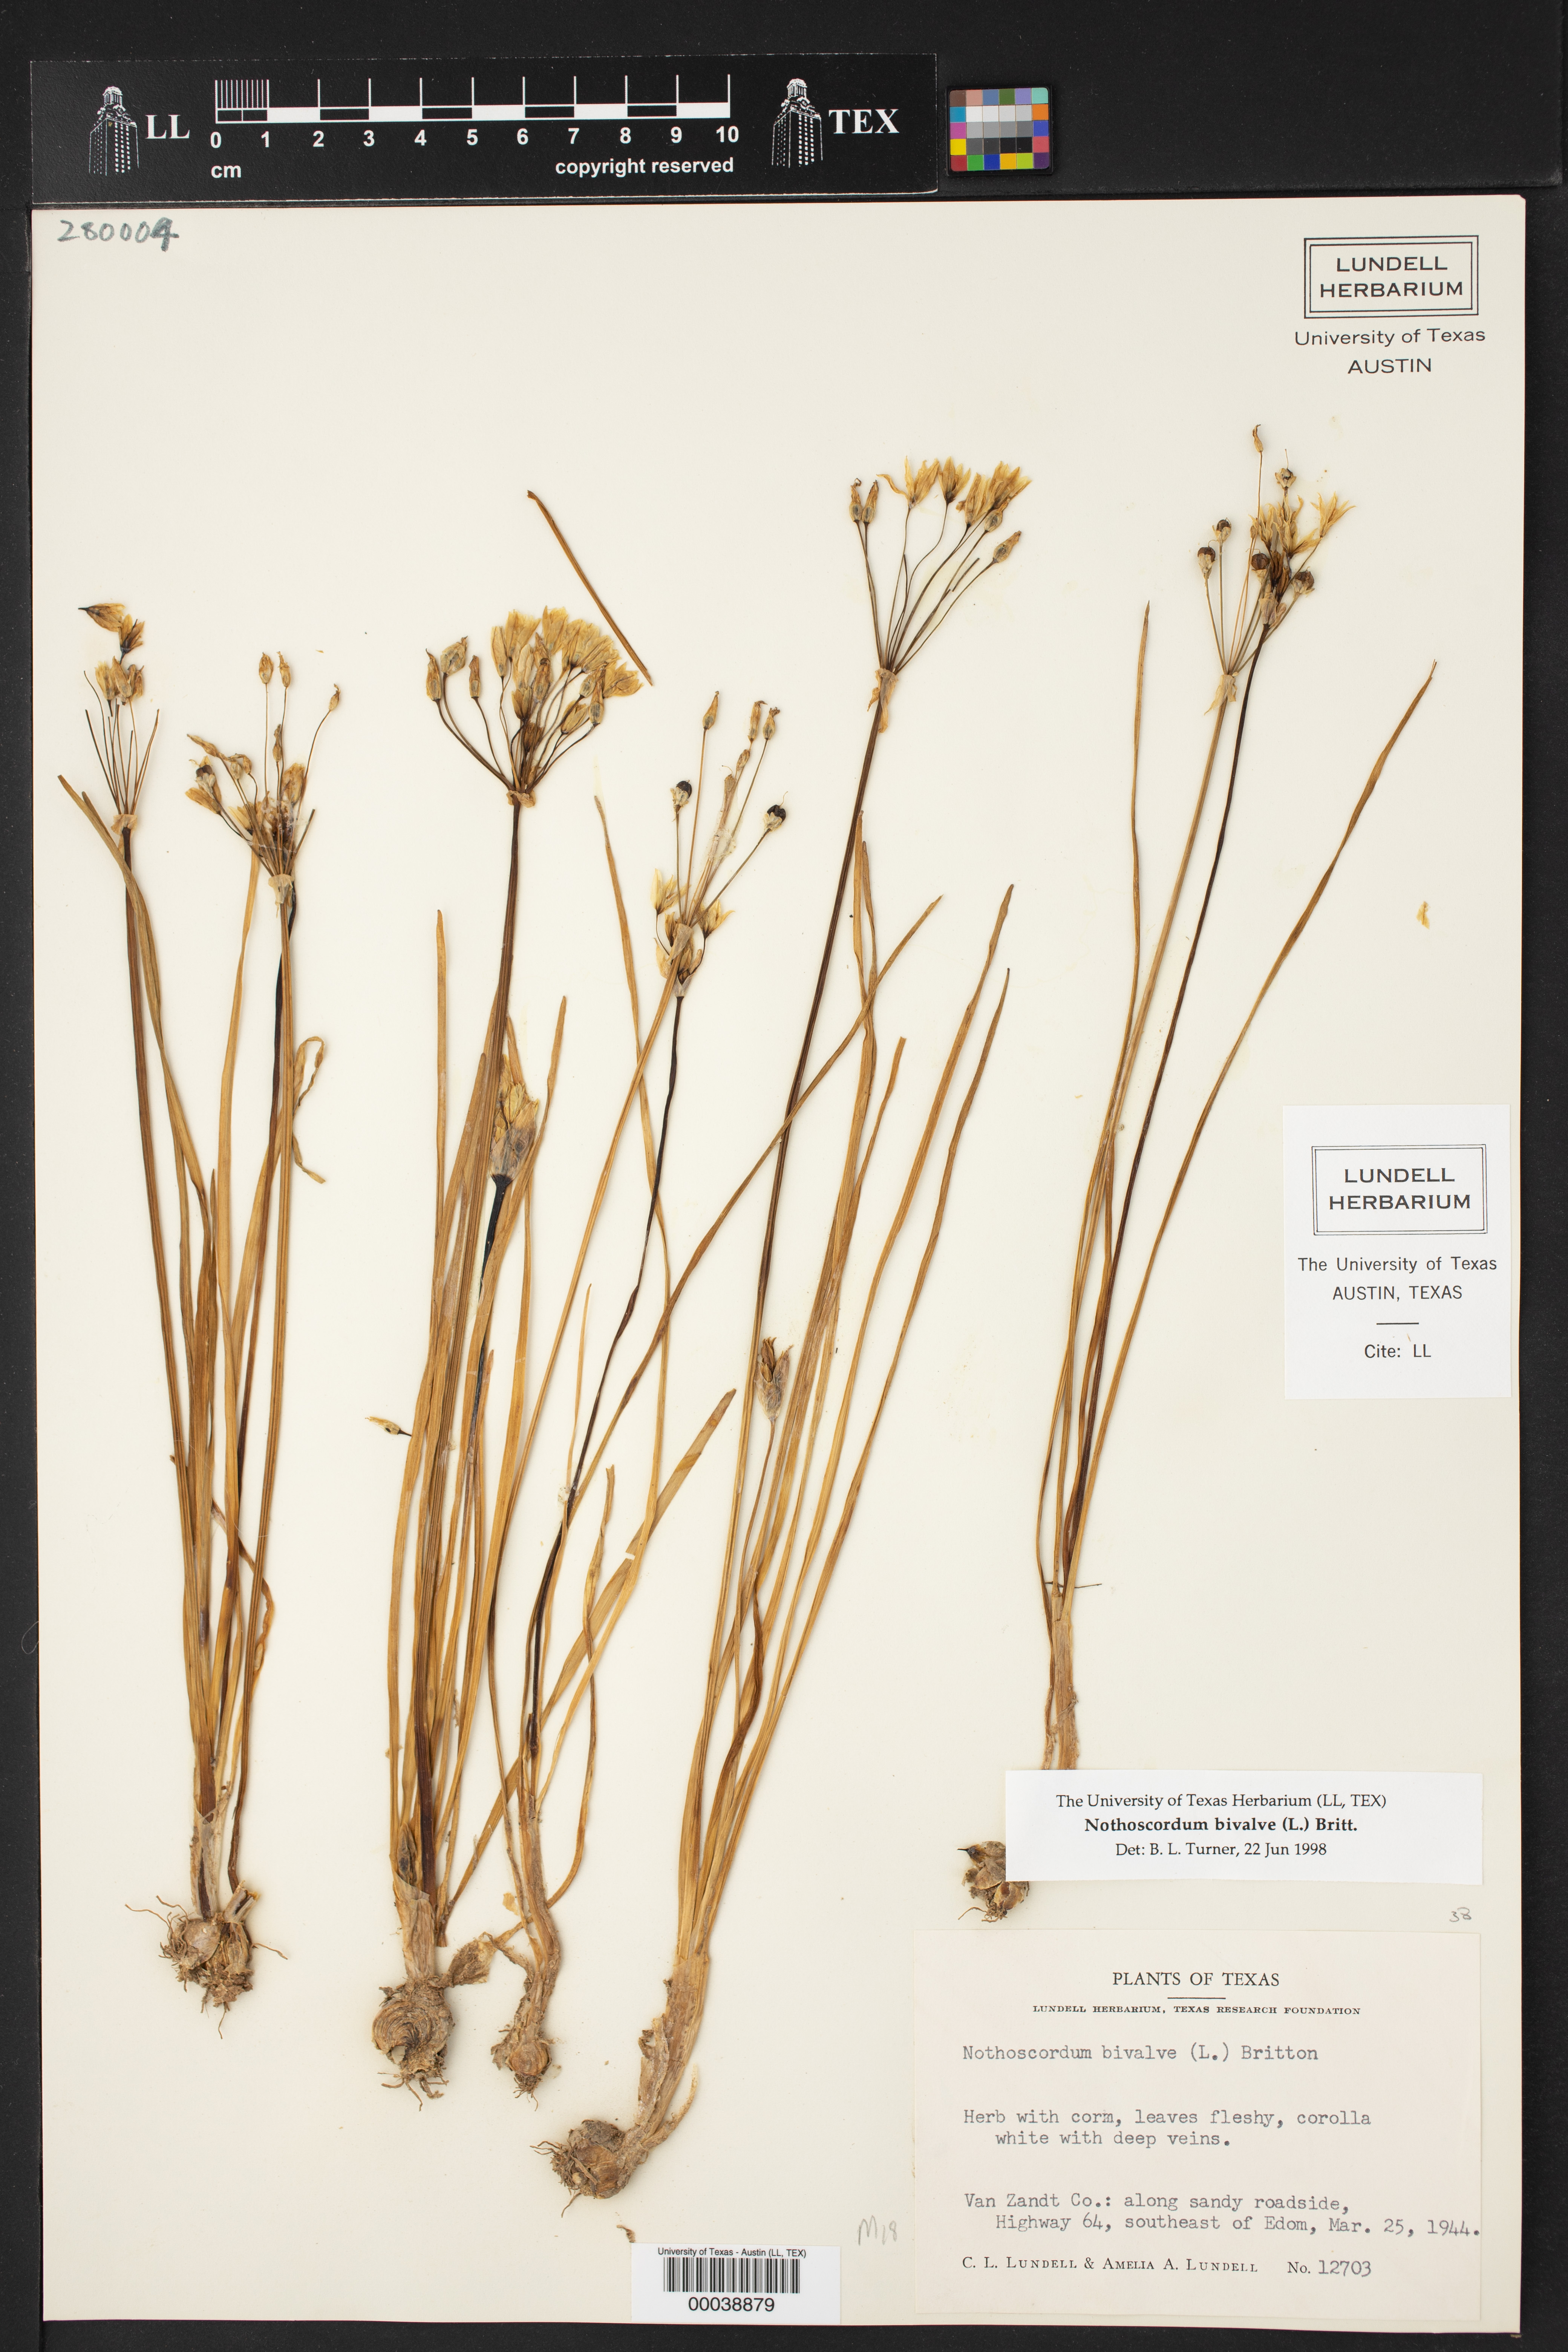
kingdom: Plantae
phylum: Tracheophyta
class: Liliopsida
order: Asparagales
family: Amaryllidaceae
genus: Nothoscordum
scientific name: Nothoscordum bivalve
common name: Crow-poison
